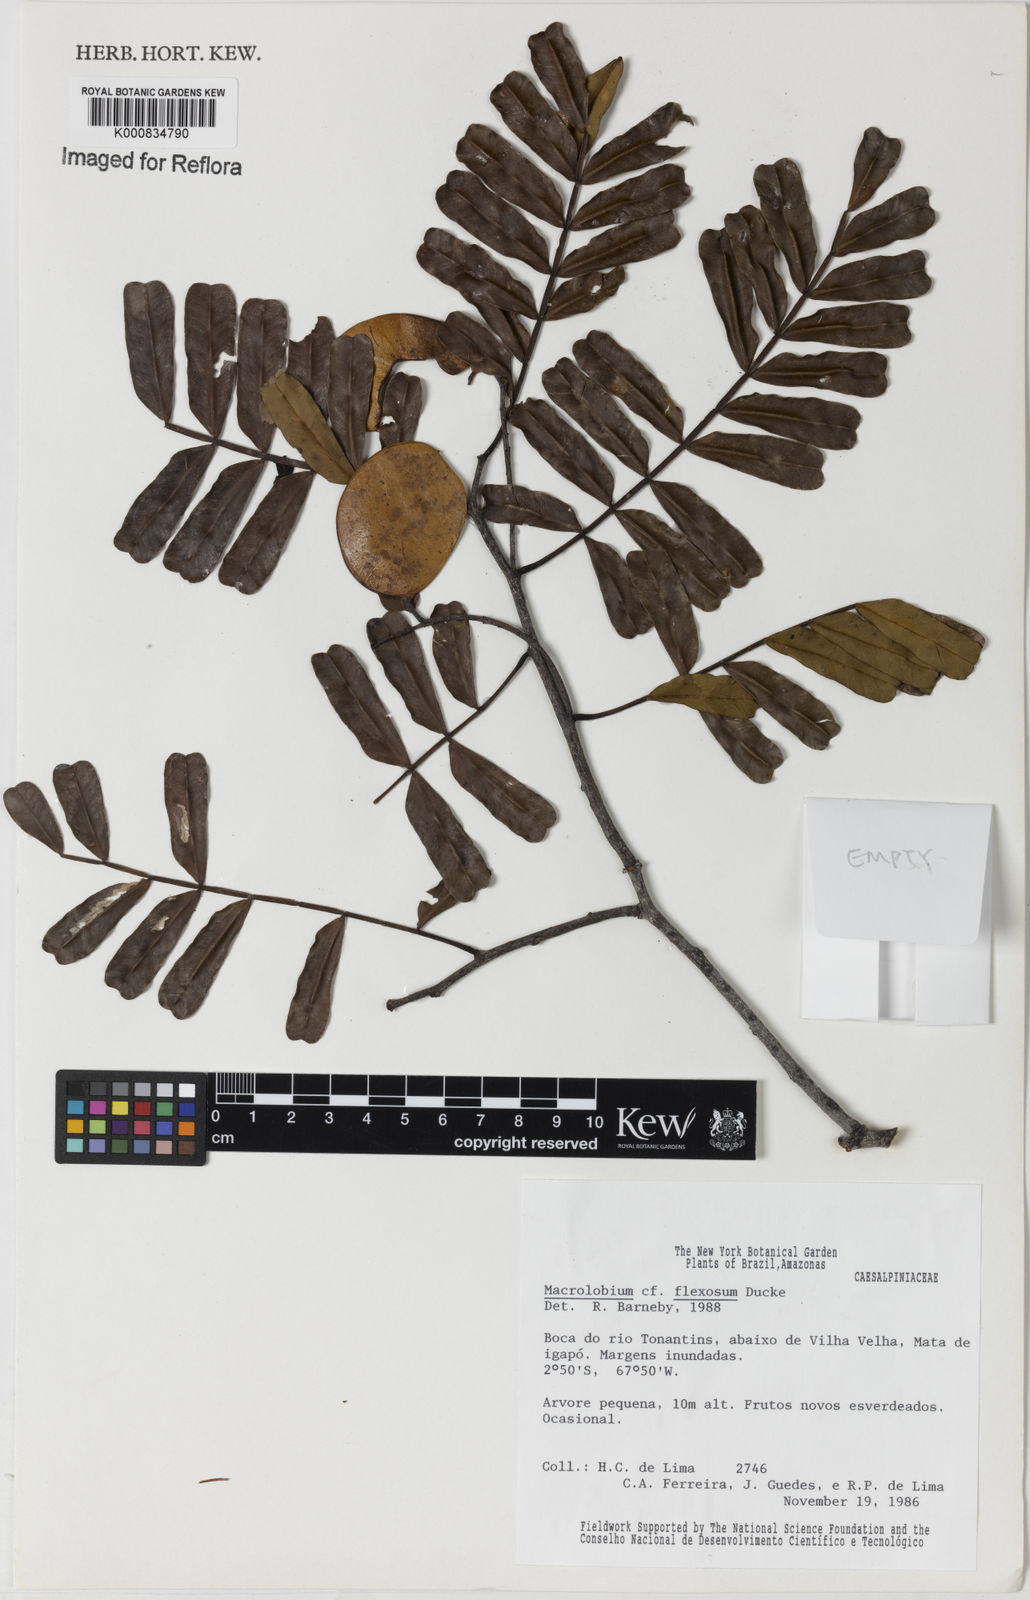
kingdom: Plantae
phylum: Tracheophyta
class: Magnoliopsida
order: Fabales
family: Fabaceae
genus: Macrolobium
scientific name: Macrolobium
